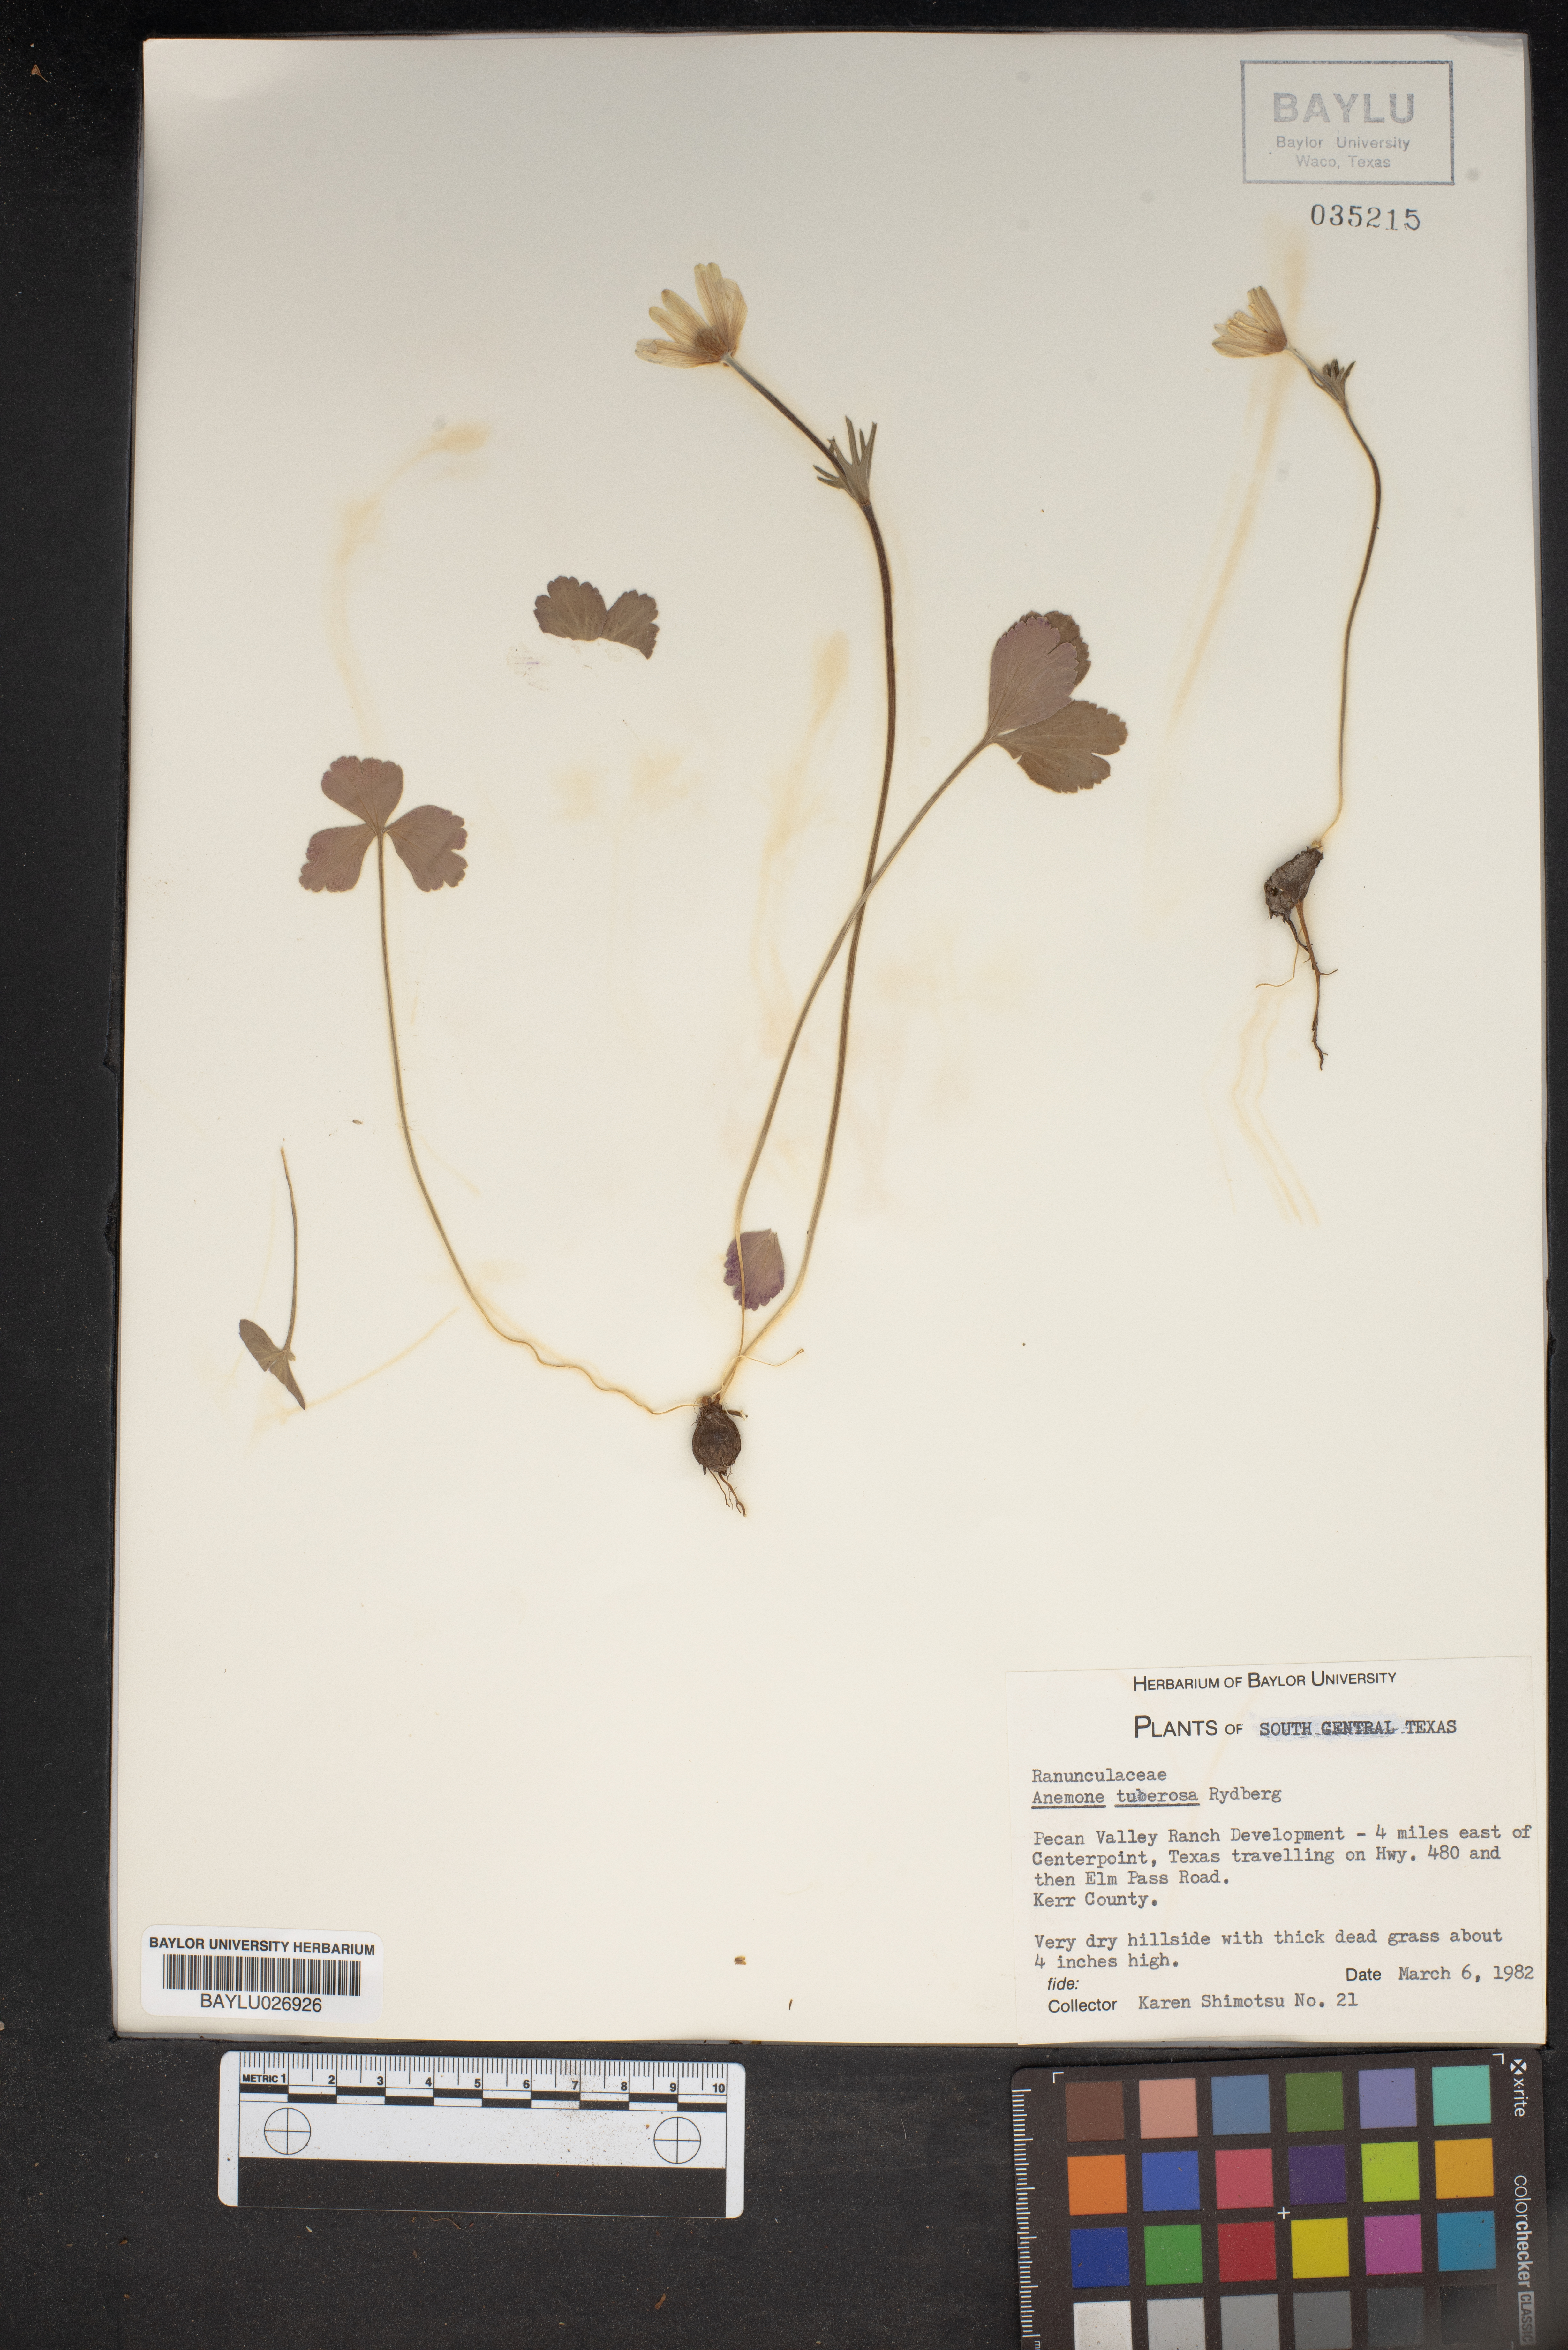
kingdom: Plantae
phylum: Tracheophyta
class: Magnoliopsida
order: Ranunculales
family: Ranunculaceae
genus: Anemone
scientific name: Anemone tuberosa
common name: Desert anemone
